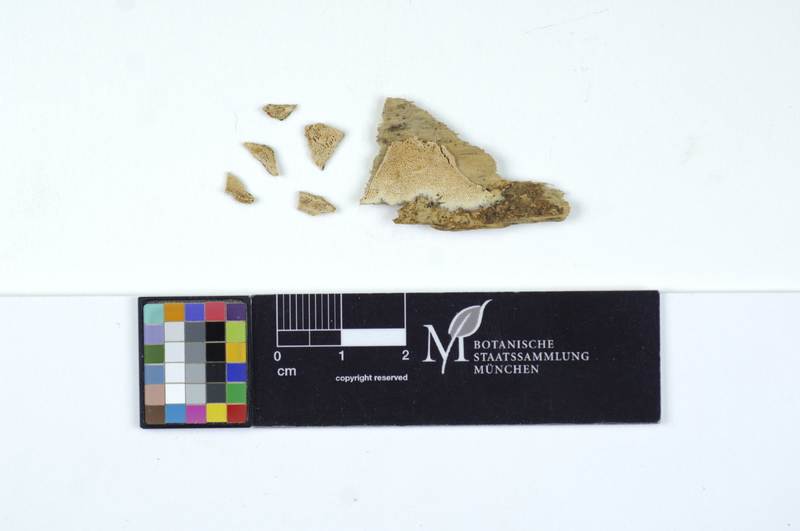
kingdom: Fungi
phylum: Basidiomycota
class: Agaricomycetes
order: Polyporales
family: Fomitopsidaceae
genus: Resinoporia
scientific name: Resinoporia sitchensis
